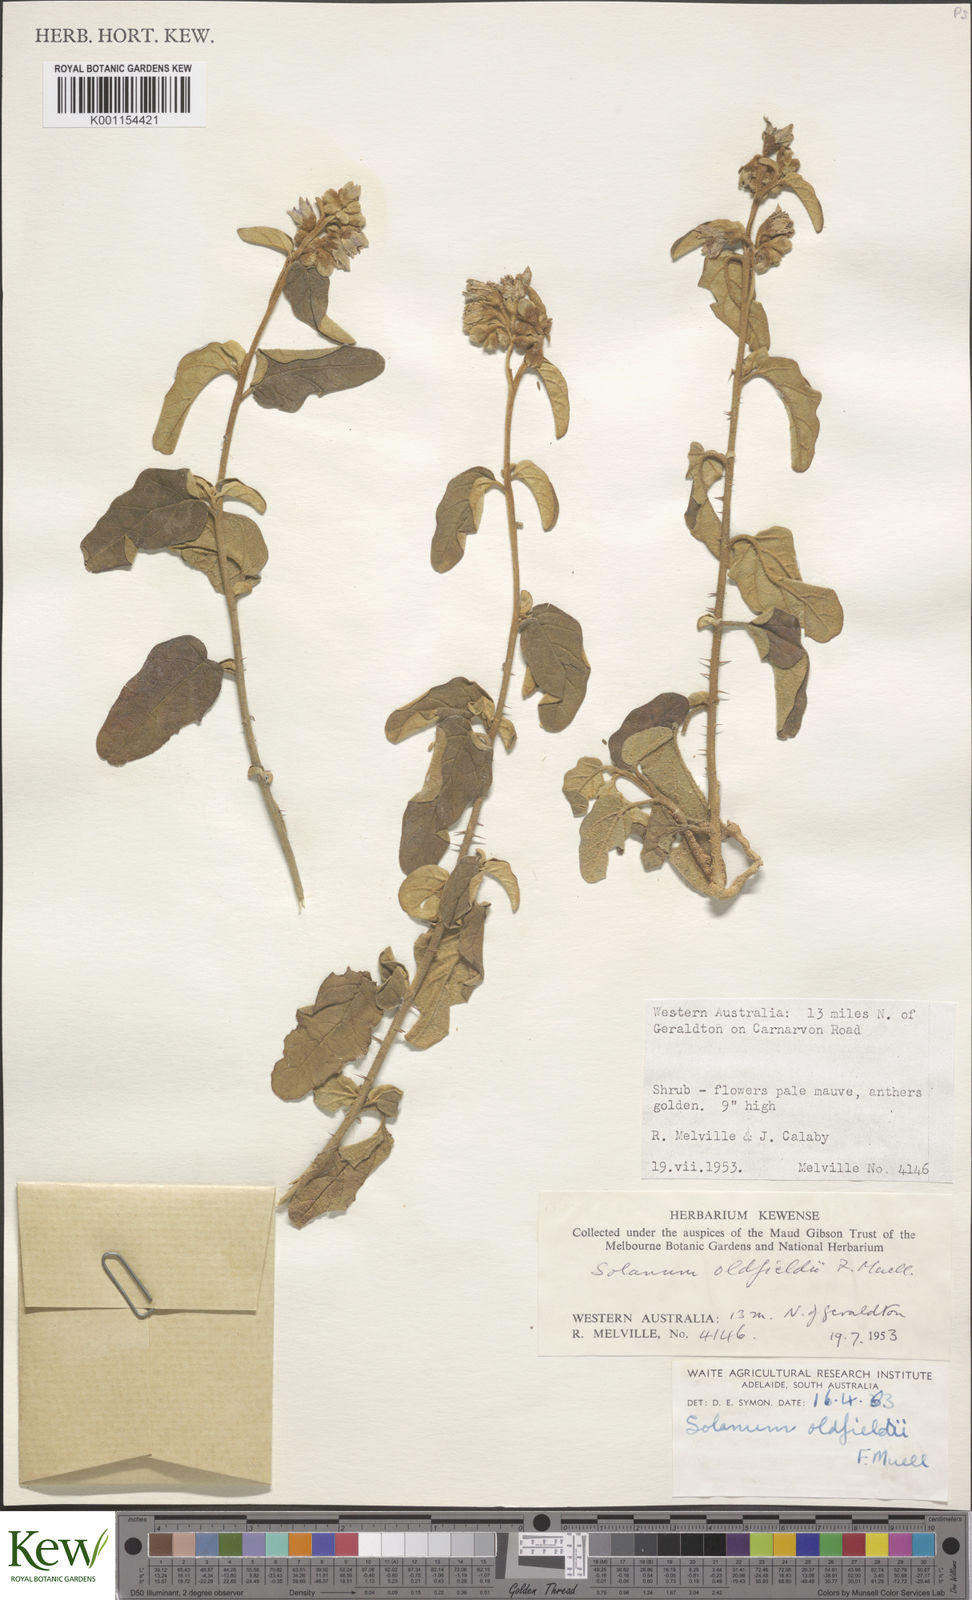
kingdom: Plantae
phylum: Tracheophyta
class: Magnoliopsida
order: Solanales
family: Solanaceae
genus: Solanum
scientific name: Solanum oldfieldii
